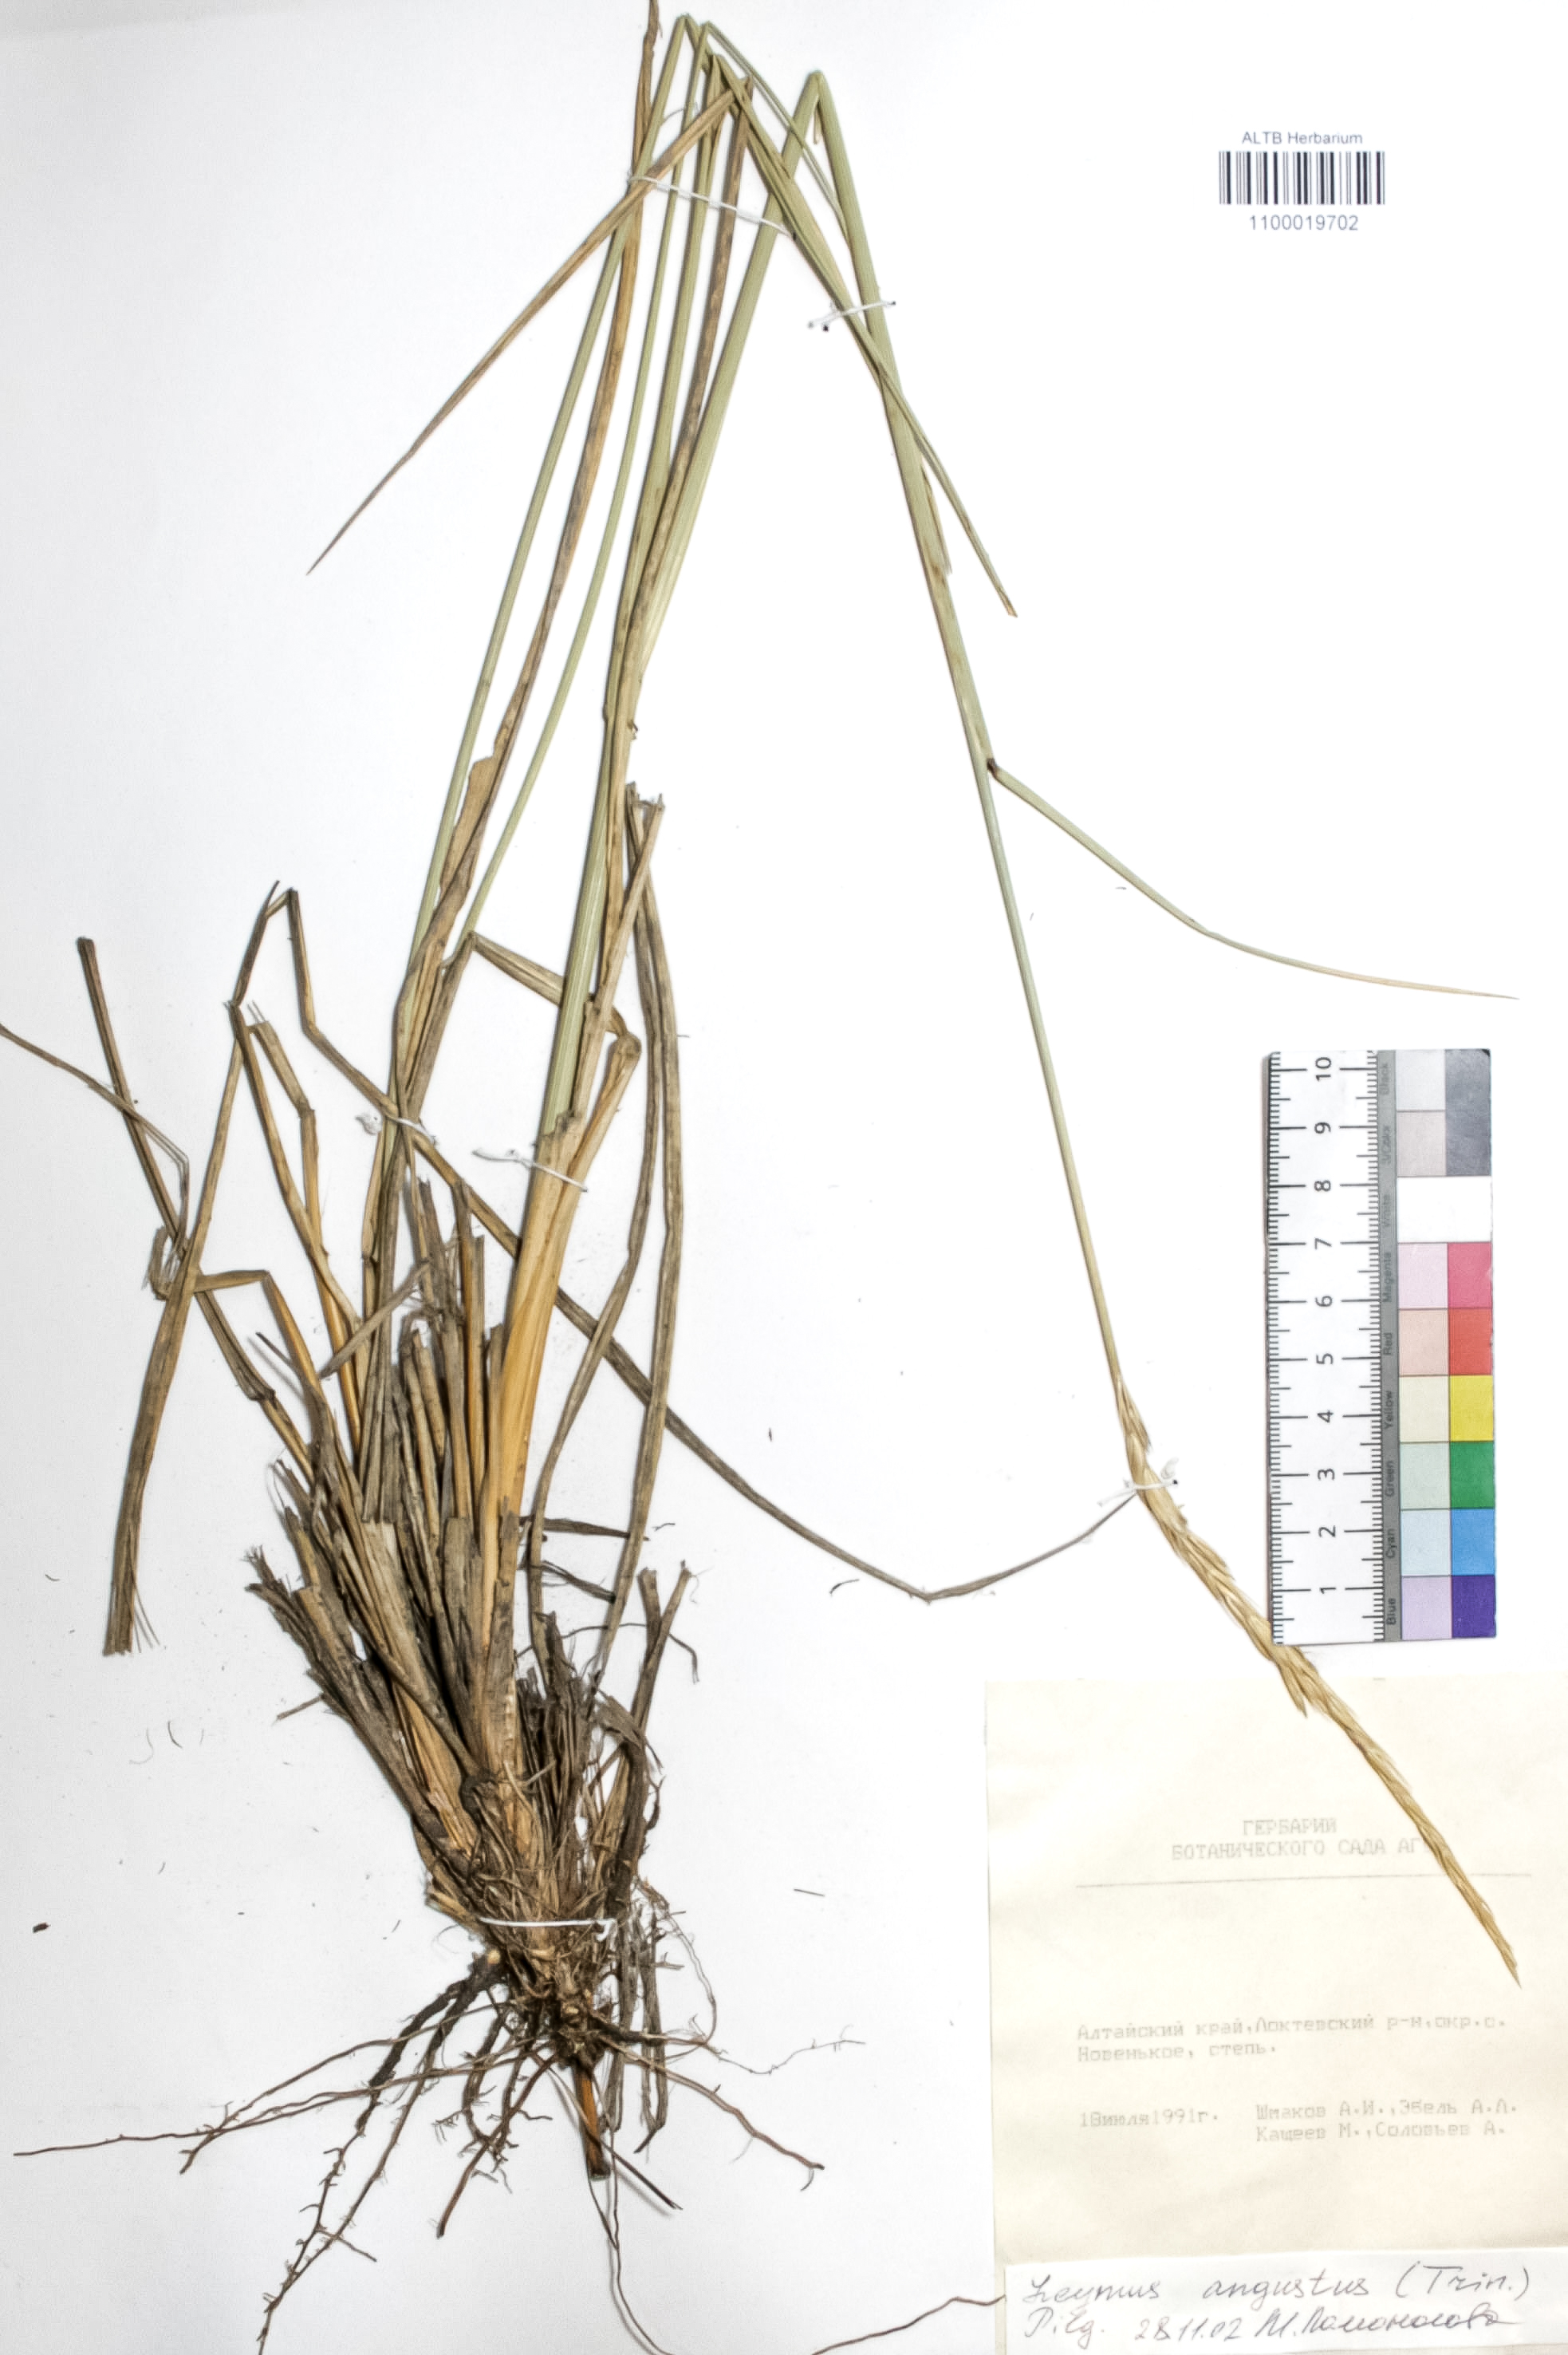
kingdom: Plantae
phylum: Tracheophyta
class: Liliopsida
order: Poales
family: Poaceae
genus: Leymus
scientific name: Leymus angustus
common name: Altai wildrye
